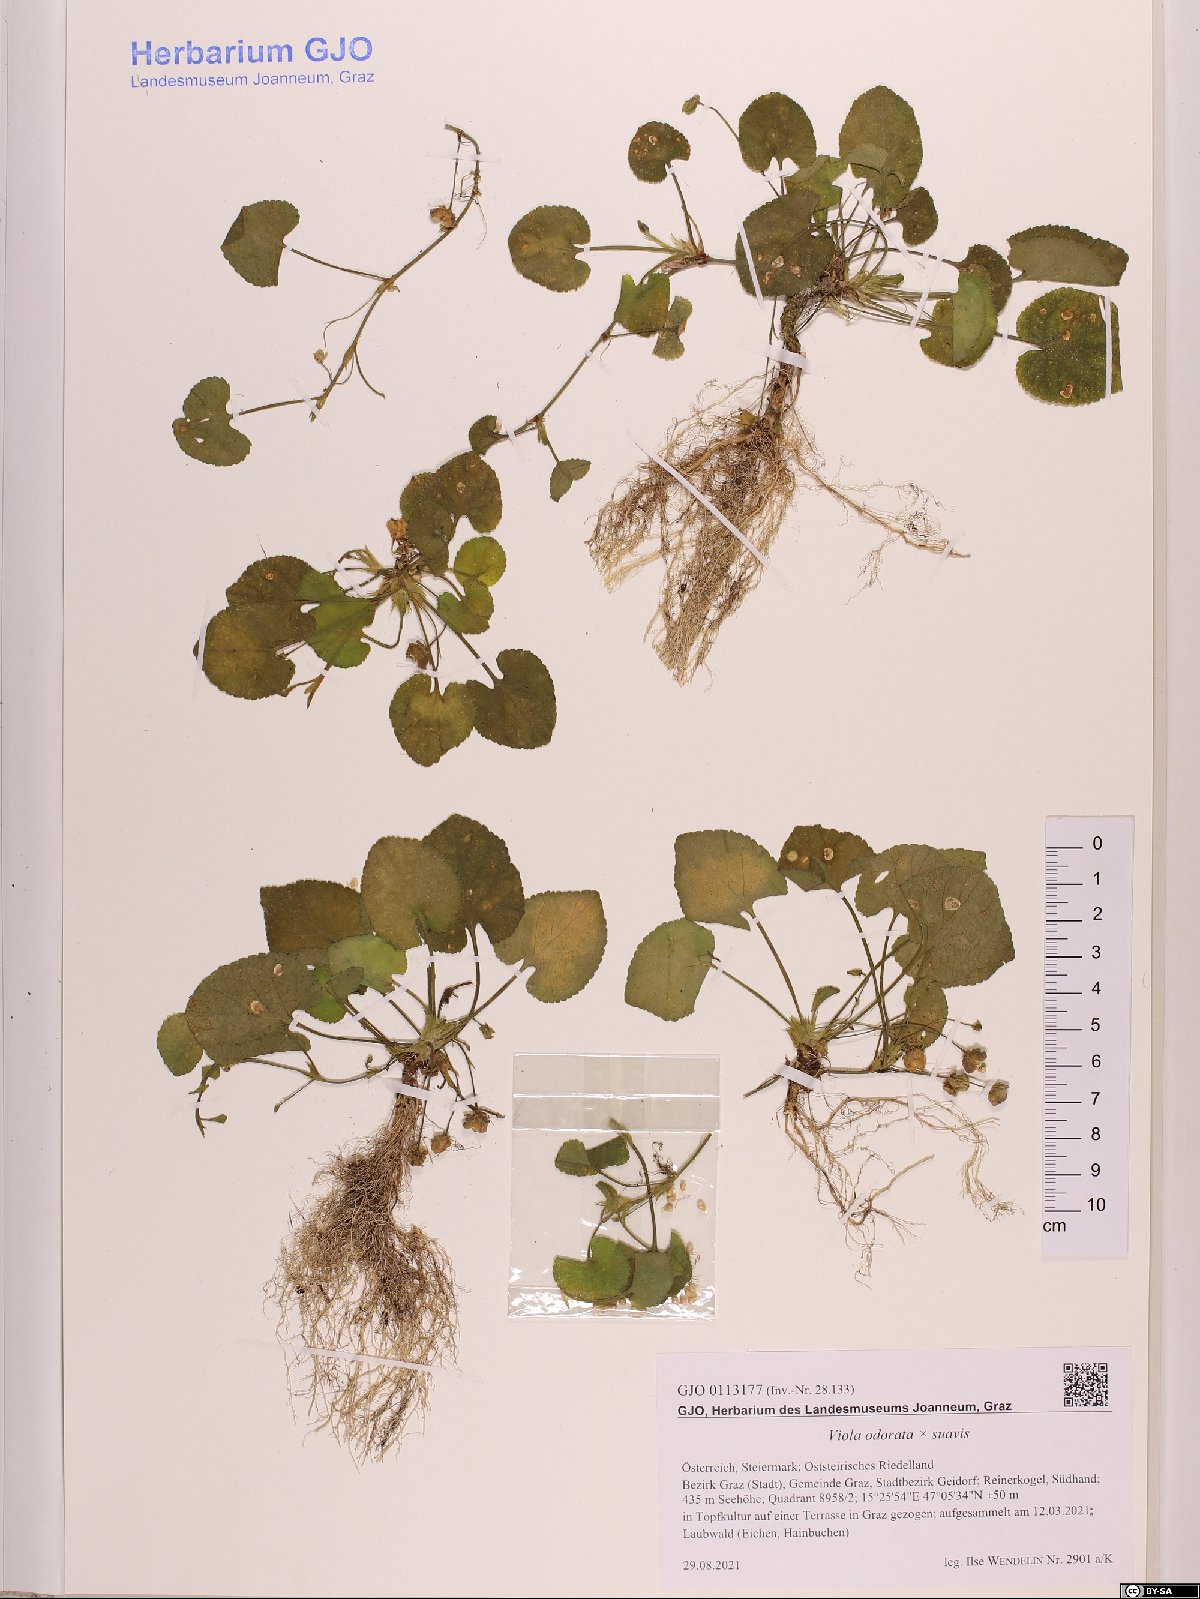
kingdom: Plantae
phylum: Tracheophyta
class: Magnoliopsida
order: Malpighiales
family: Violaceae
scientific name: Violaceae
